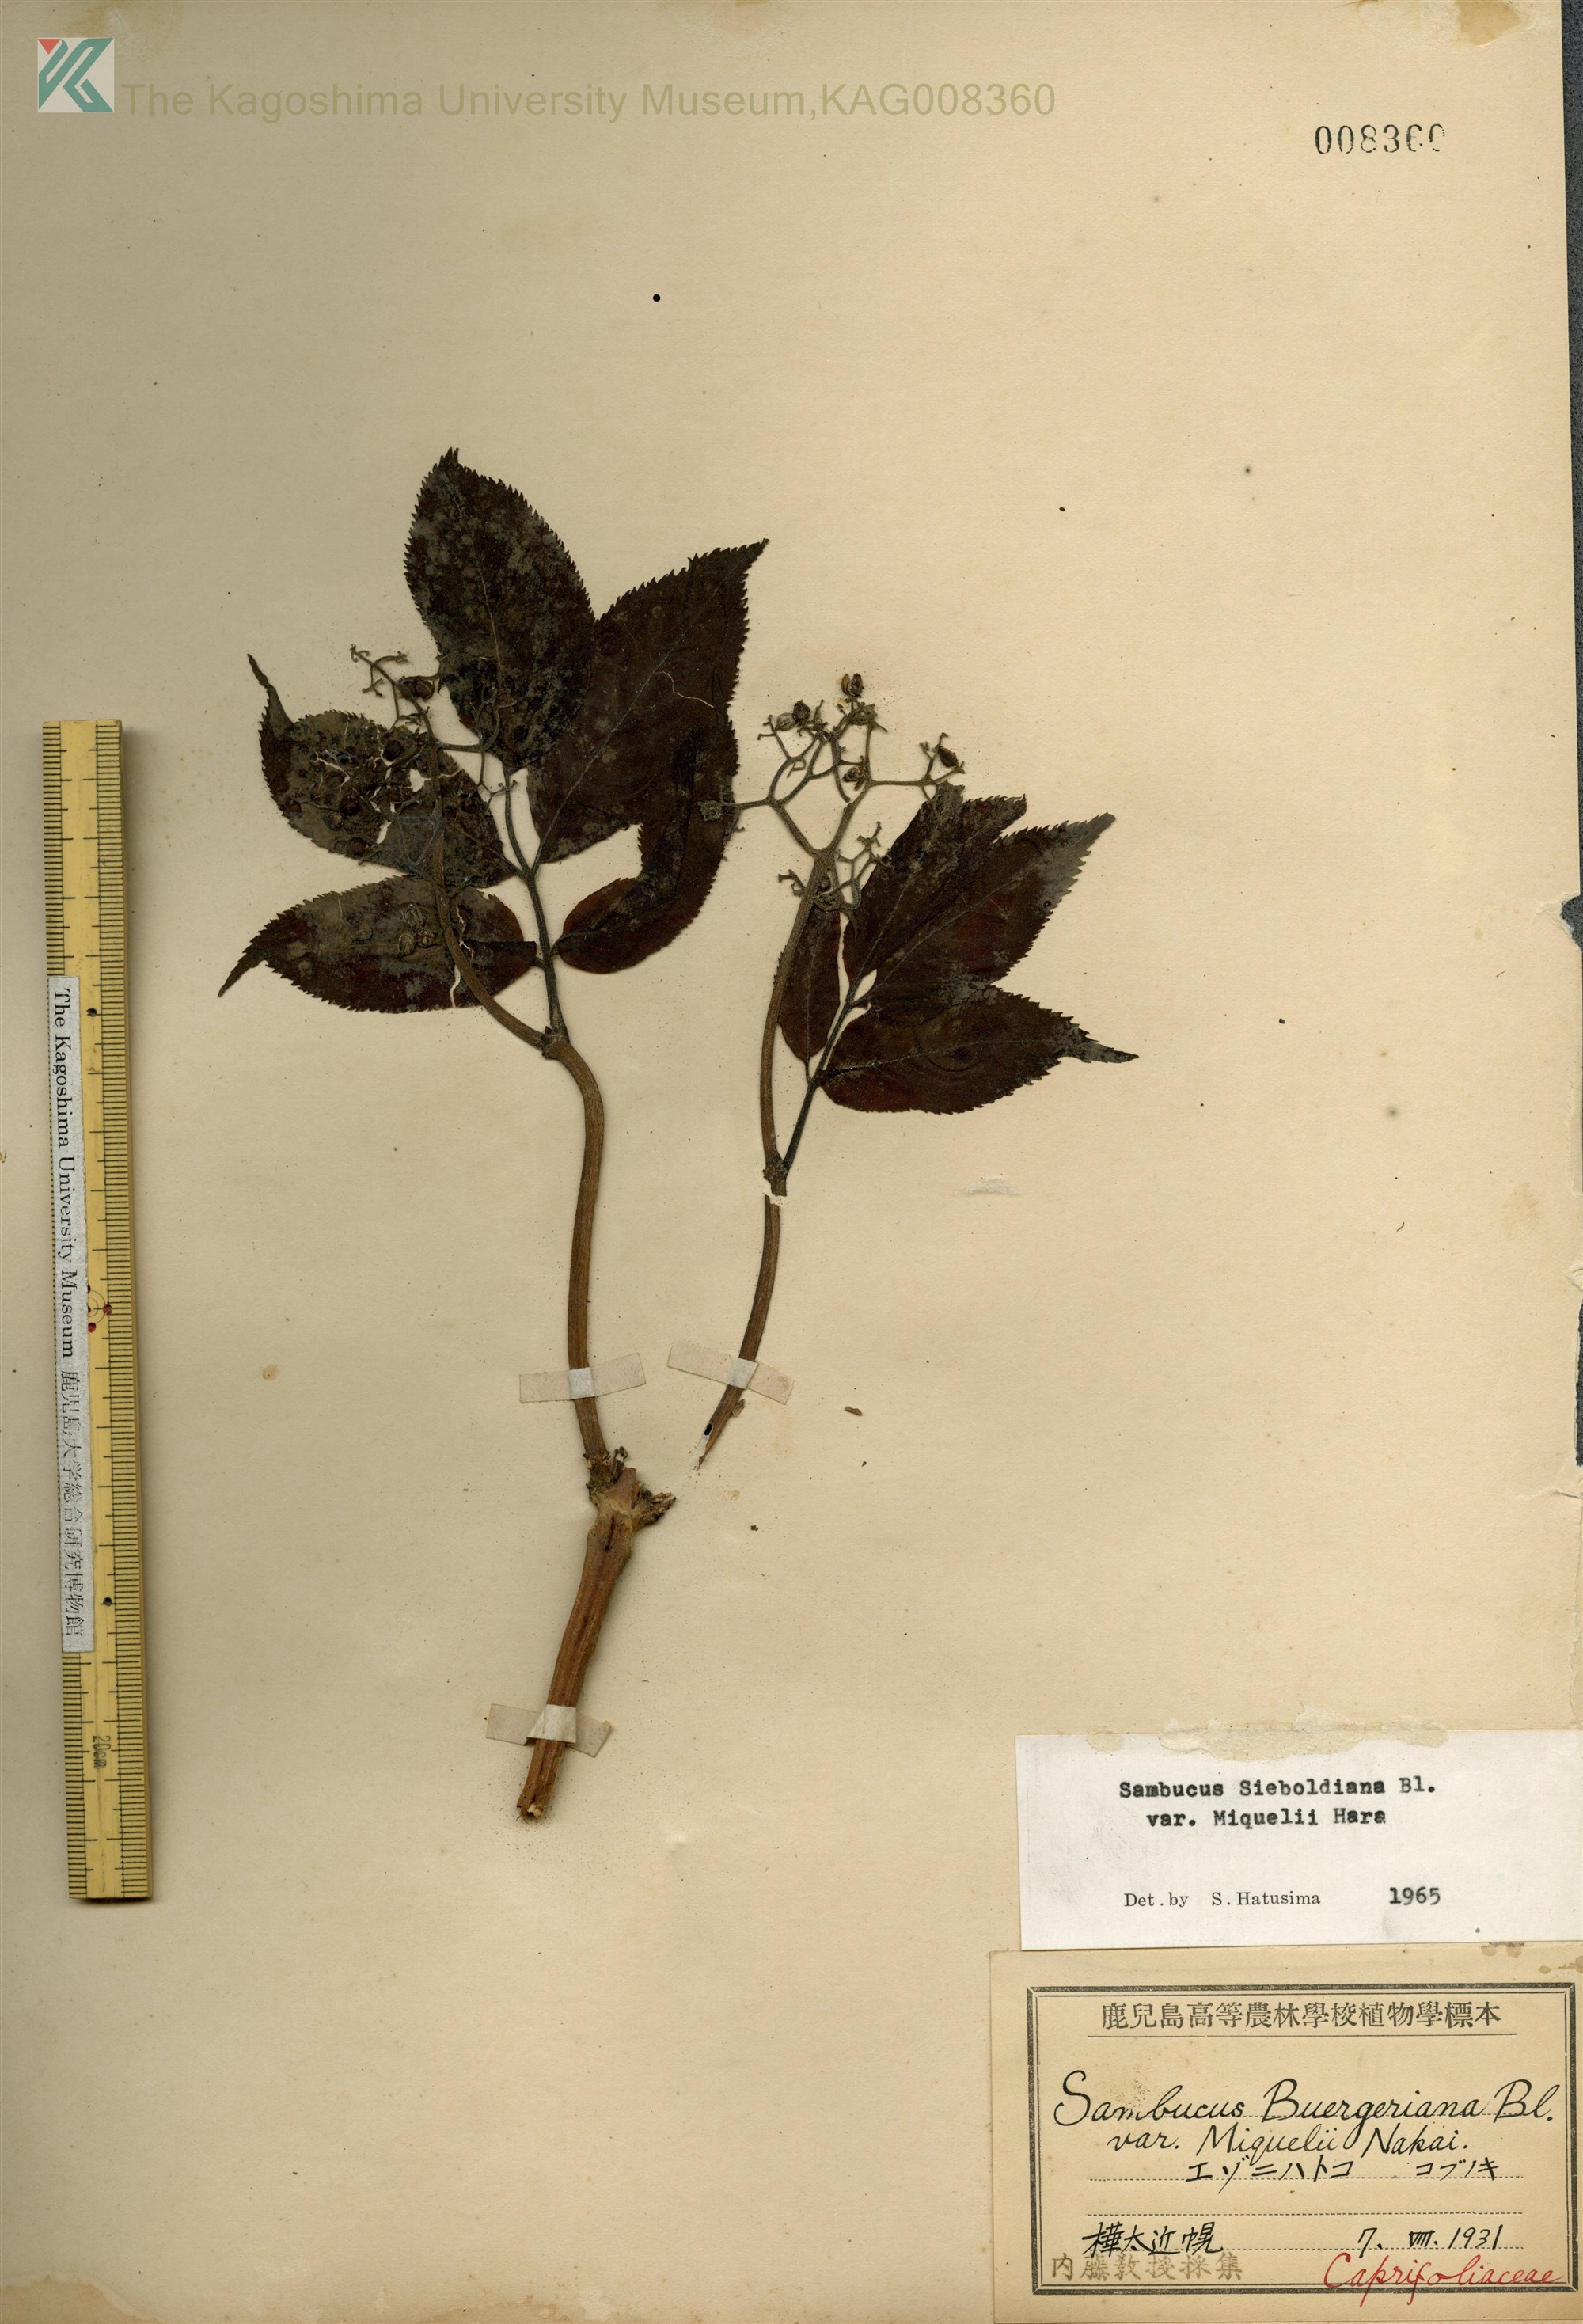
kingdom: Plantae
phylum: Tracheophyta
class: Magnoliopsida
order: Dipsacales
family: Viburnaceae
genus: Sambucus
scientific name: Sambucus kamtschatica
